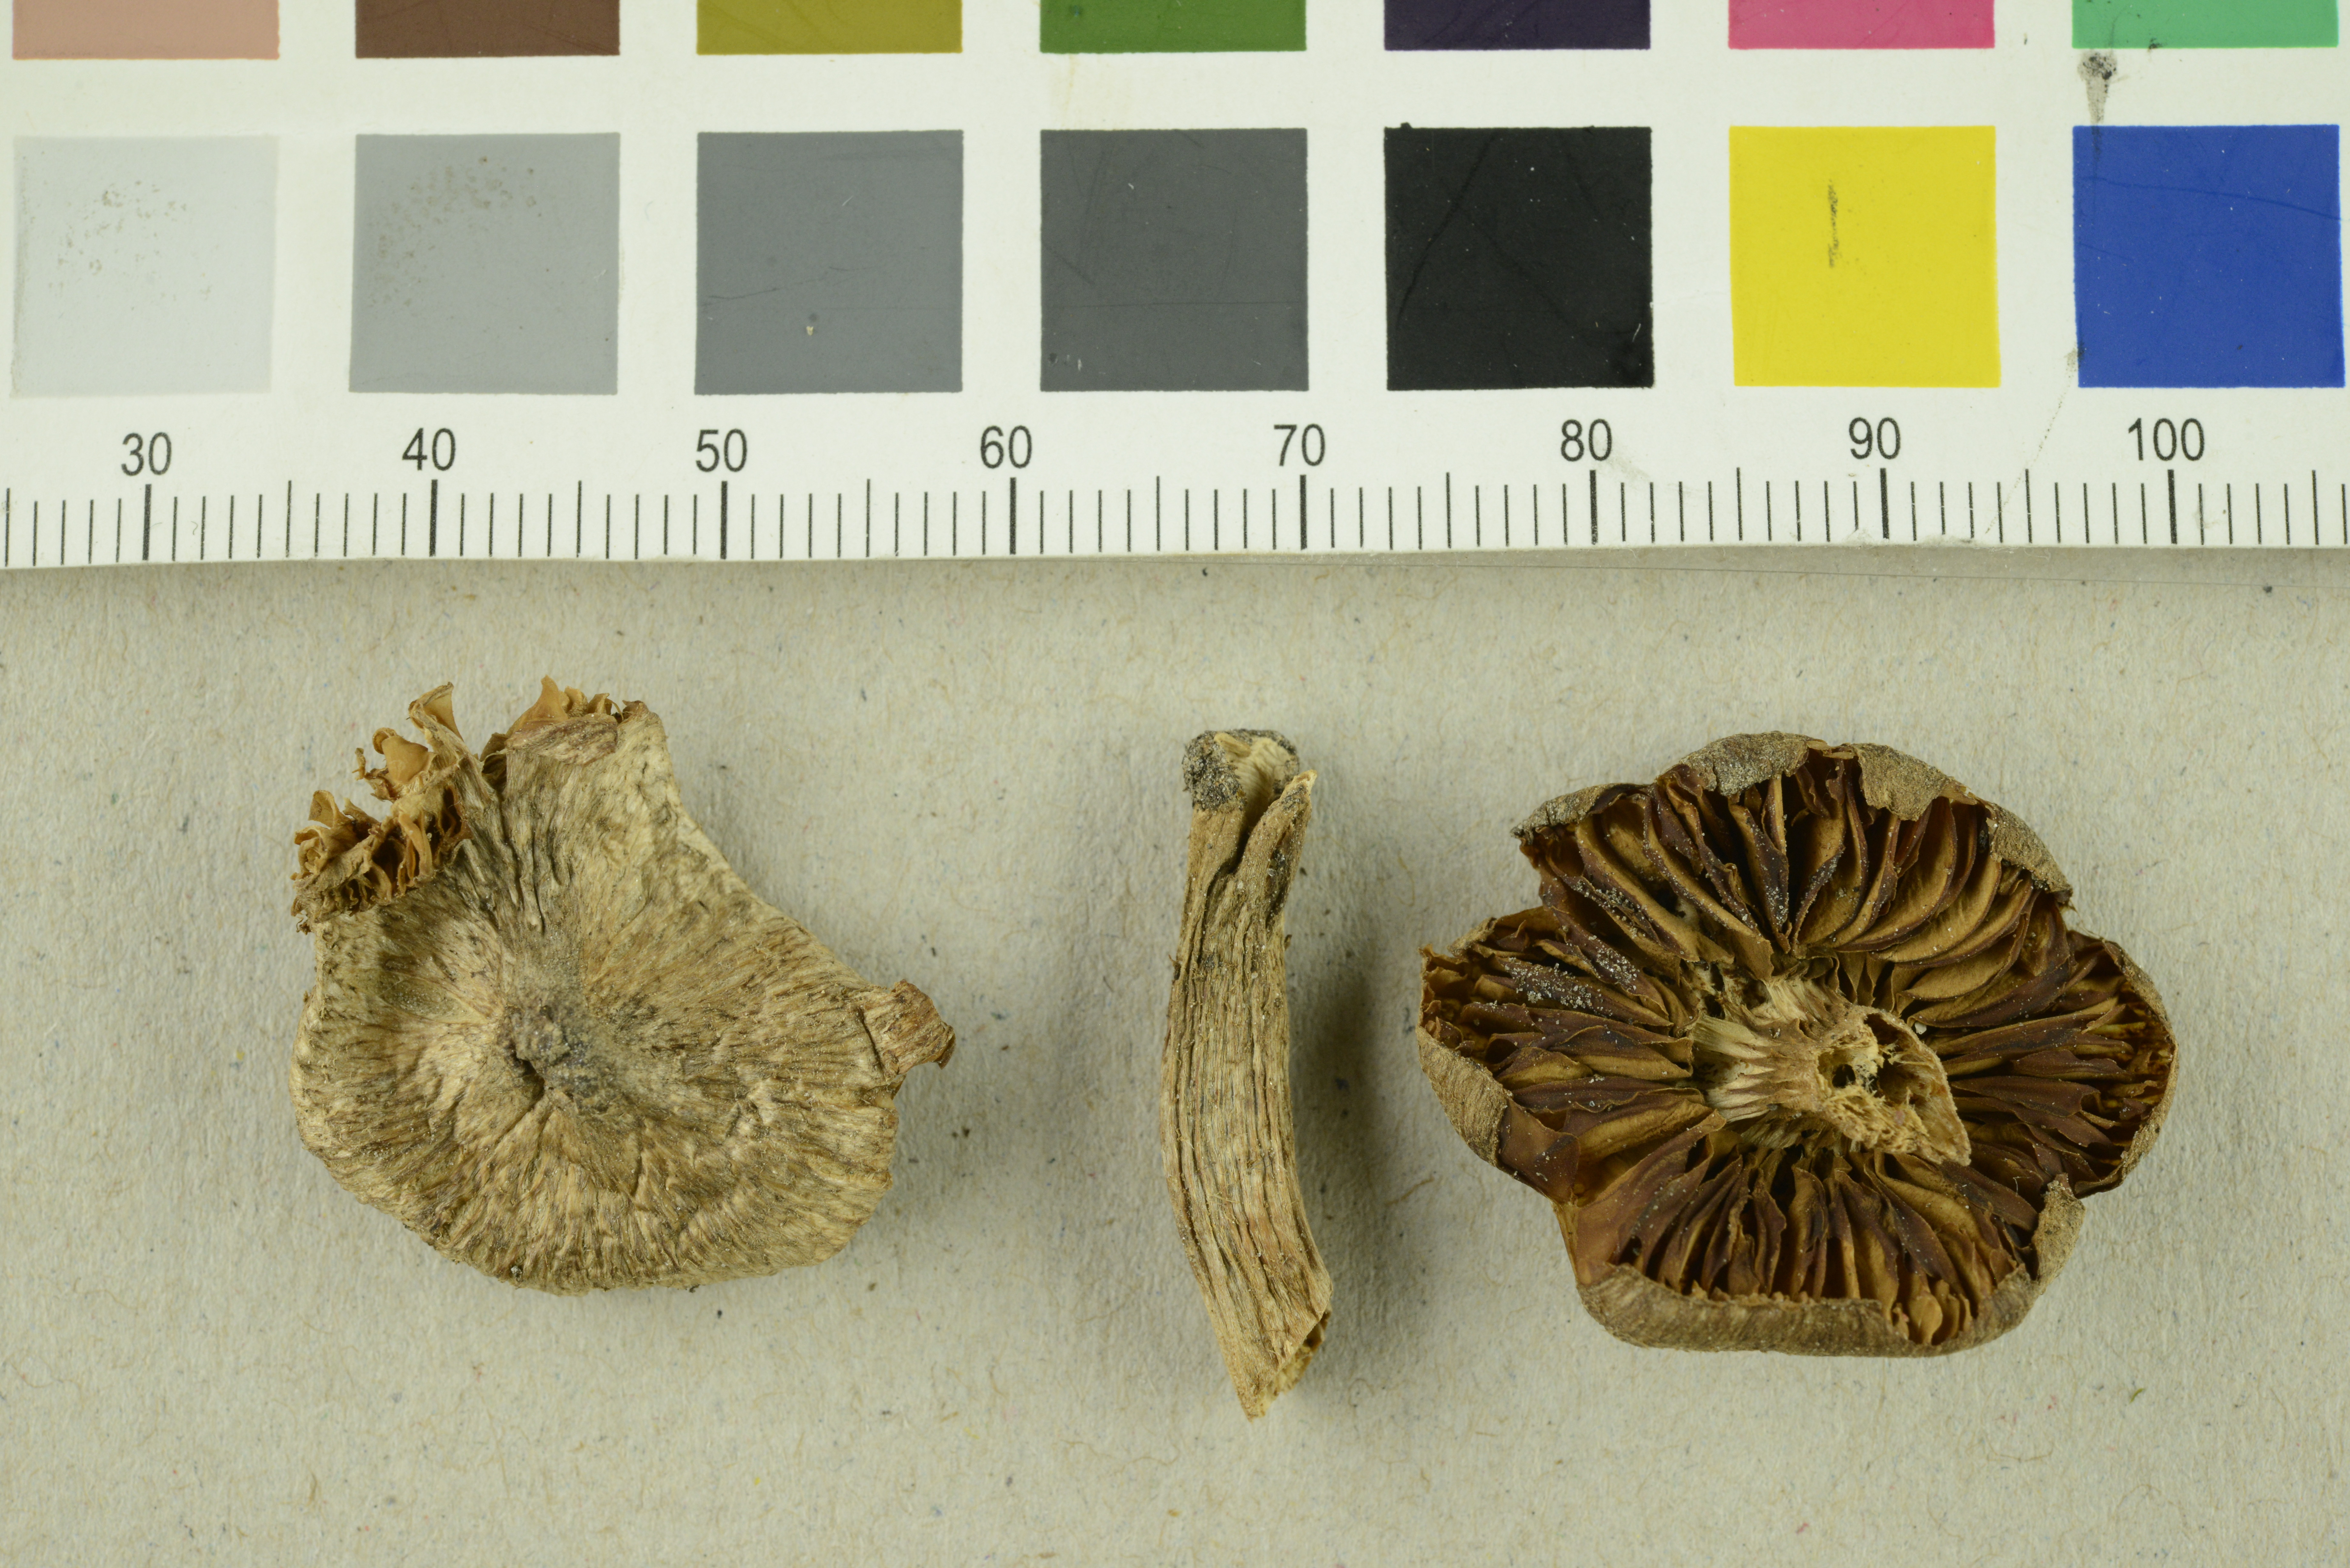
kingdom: Fungi
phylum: Basidiomycota
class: Agaricomycetes
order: Agaricales
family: Inocybaceae
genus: Inocybe
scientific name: Inocybe pseudoteraturgus
